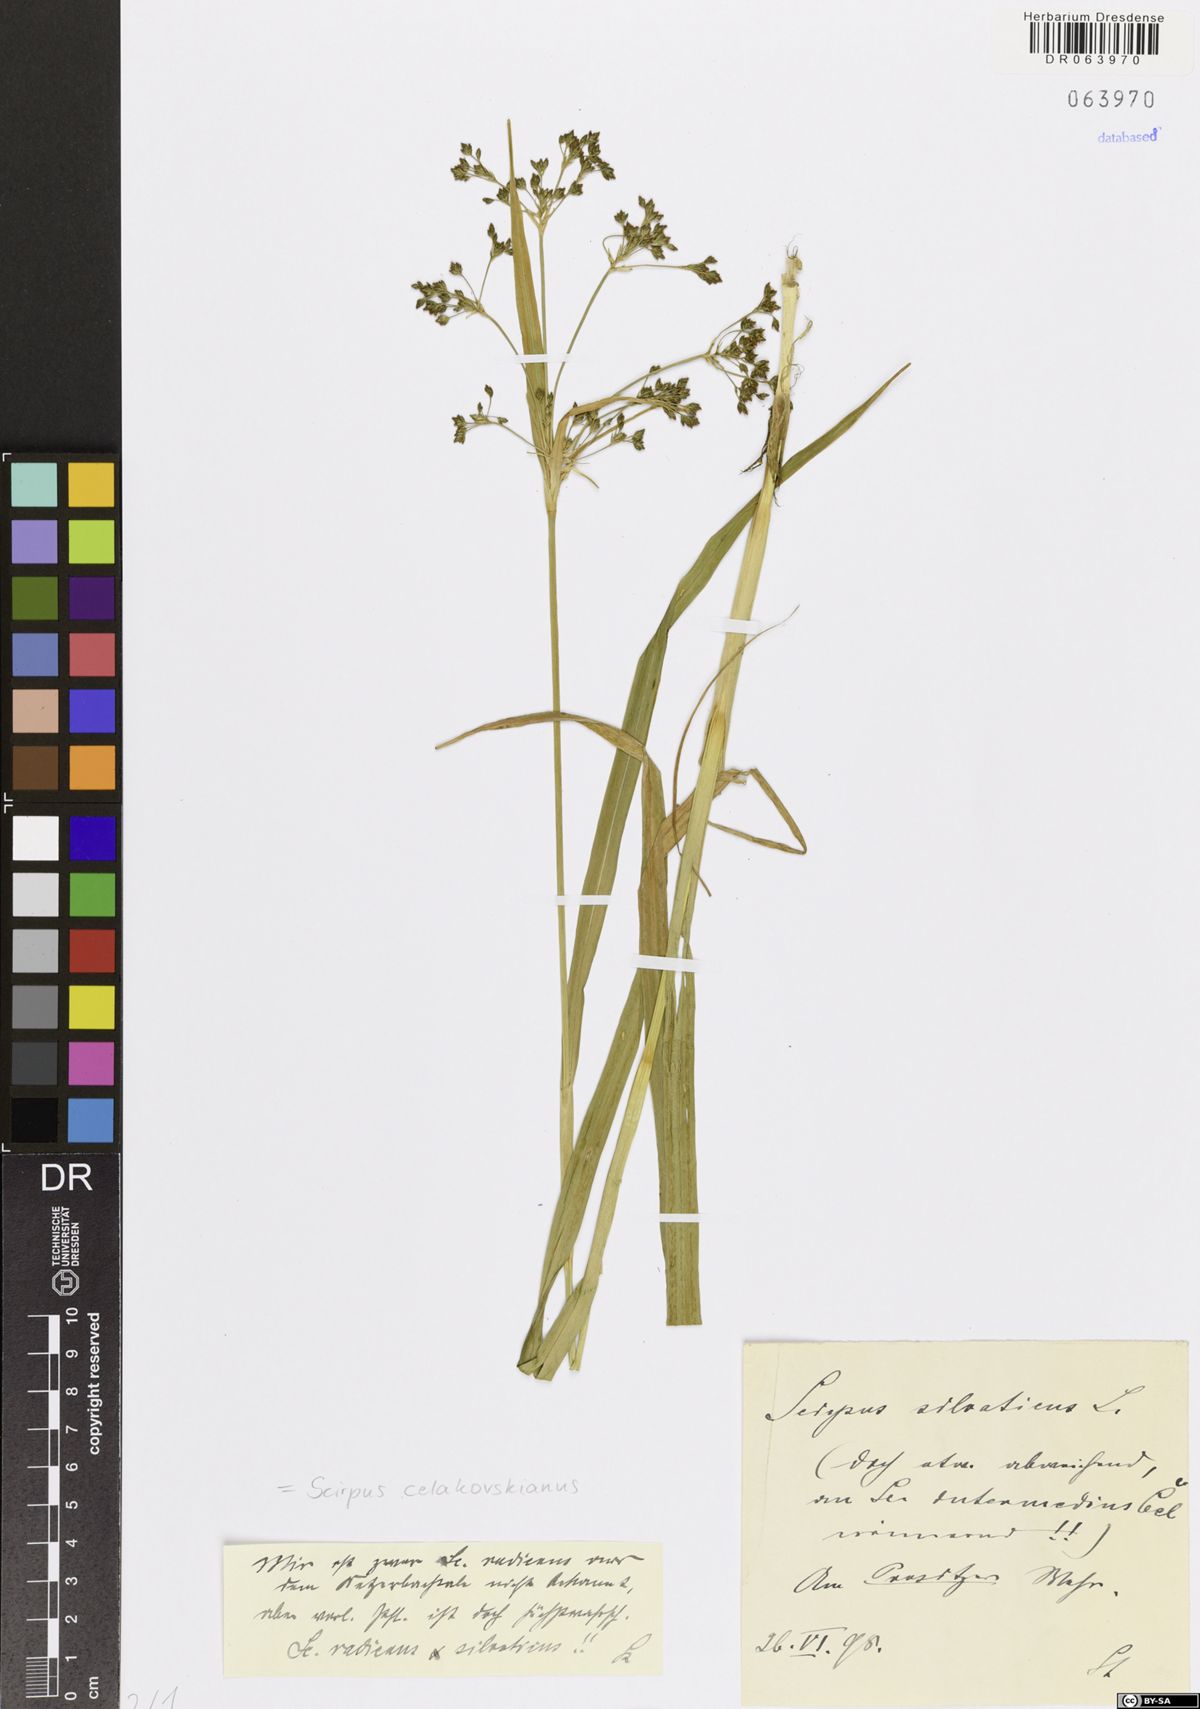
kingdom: Plantae
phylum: Tracheophyta
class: Liliopsida
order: Poales
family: Cyperaceae
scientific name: Cyperaceae
